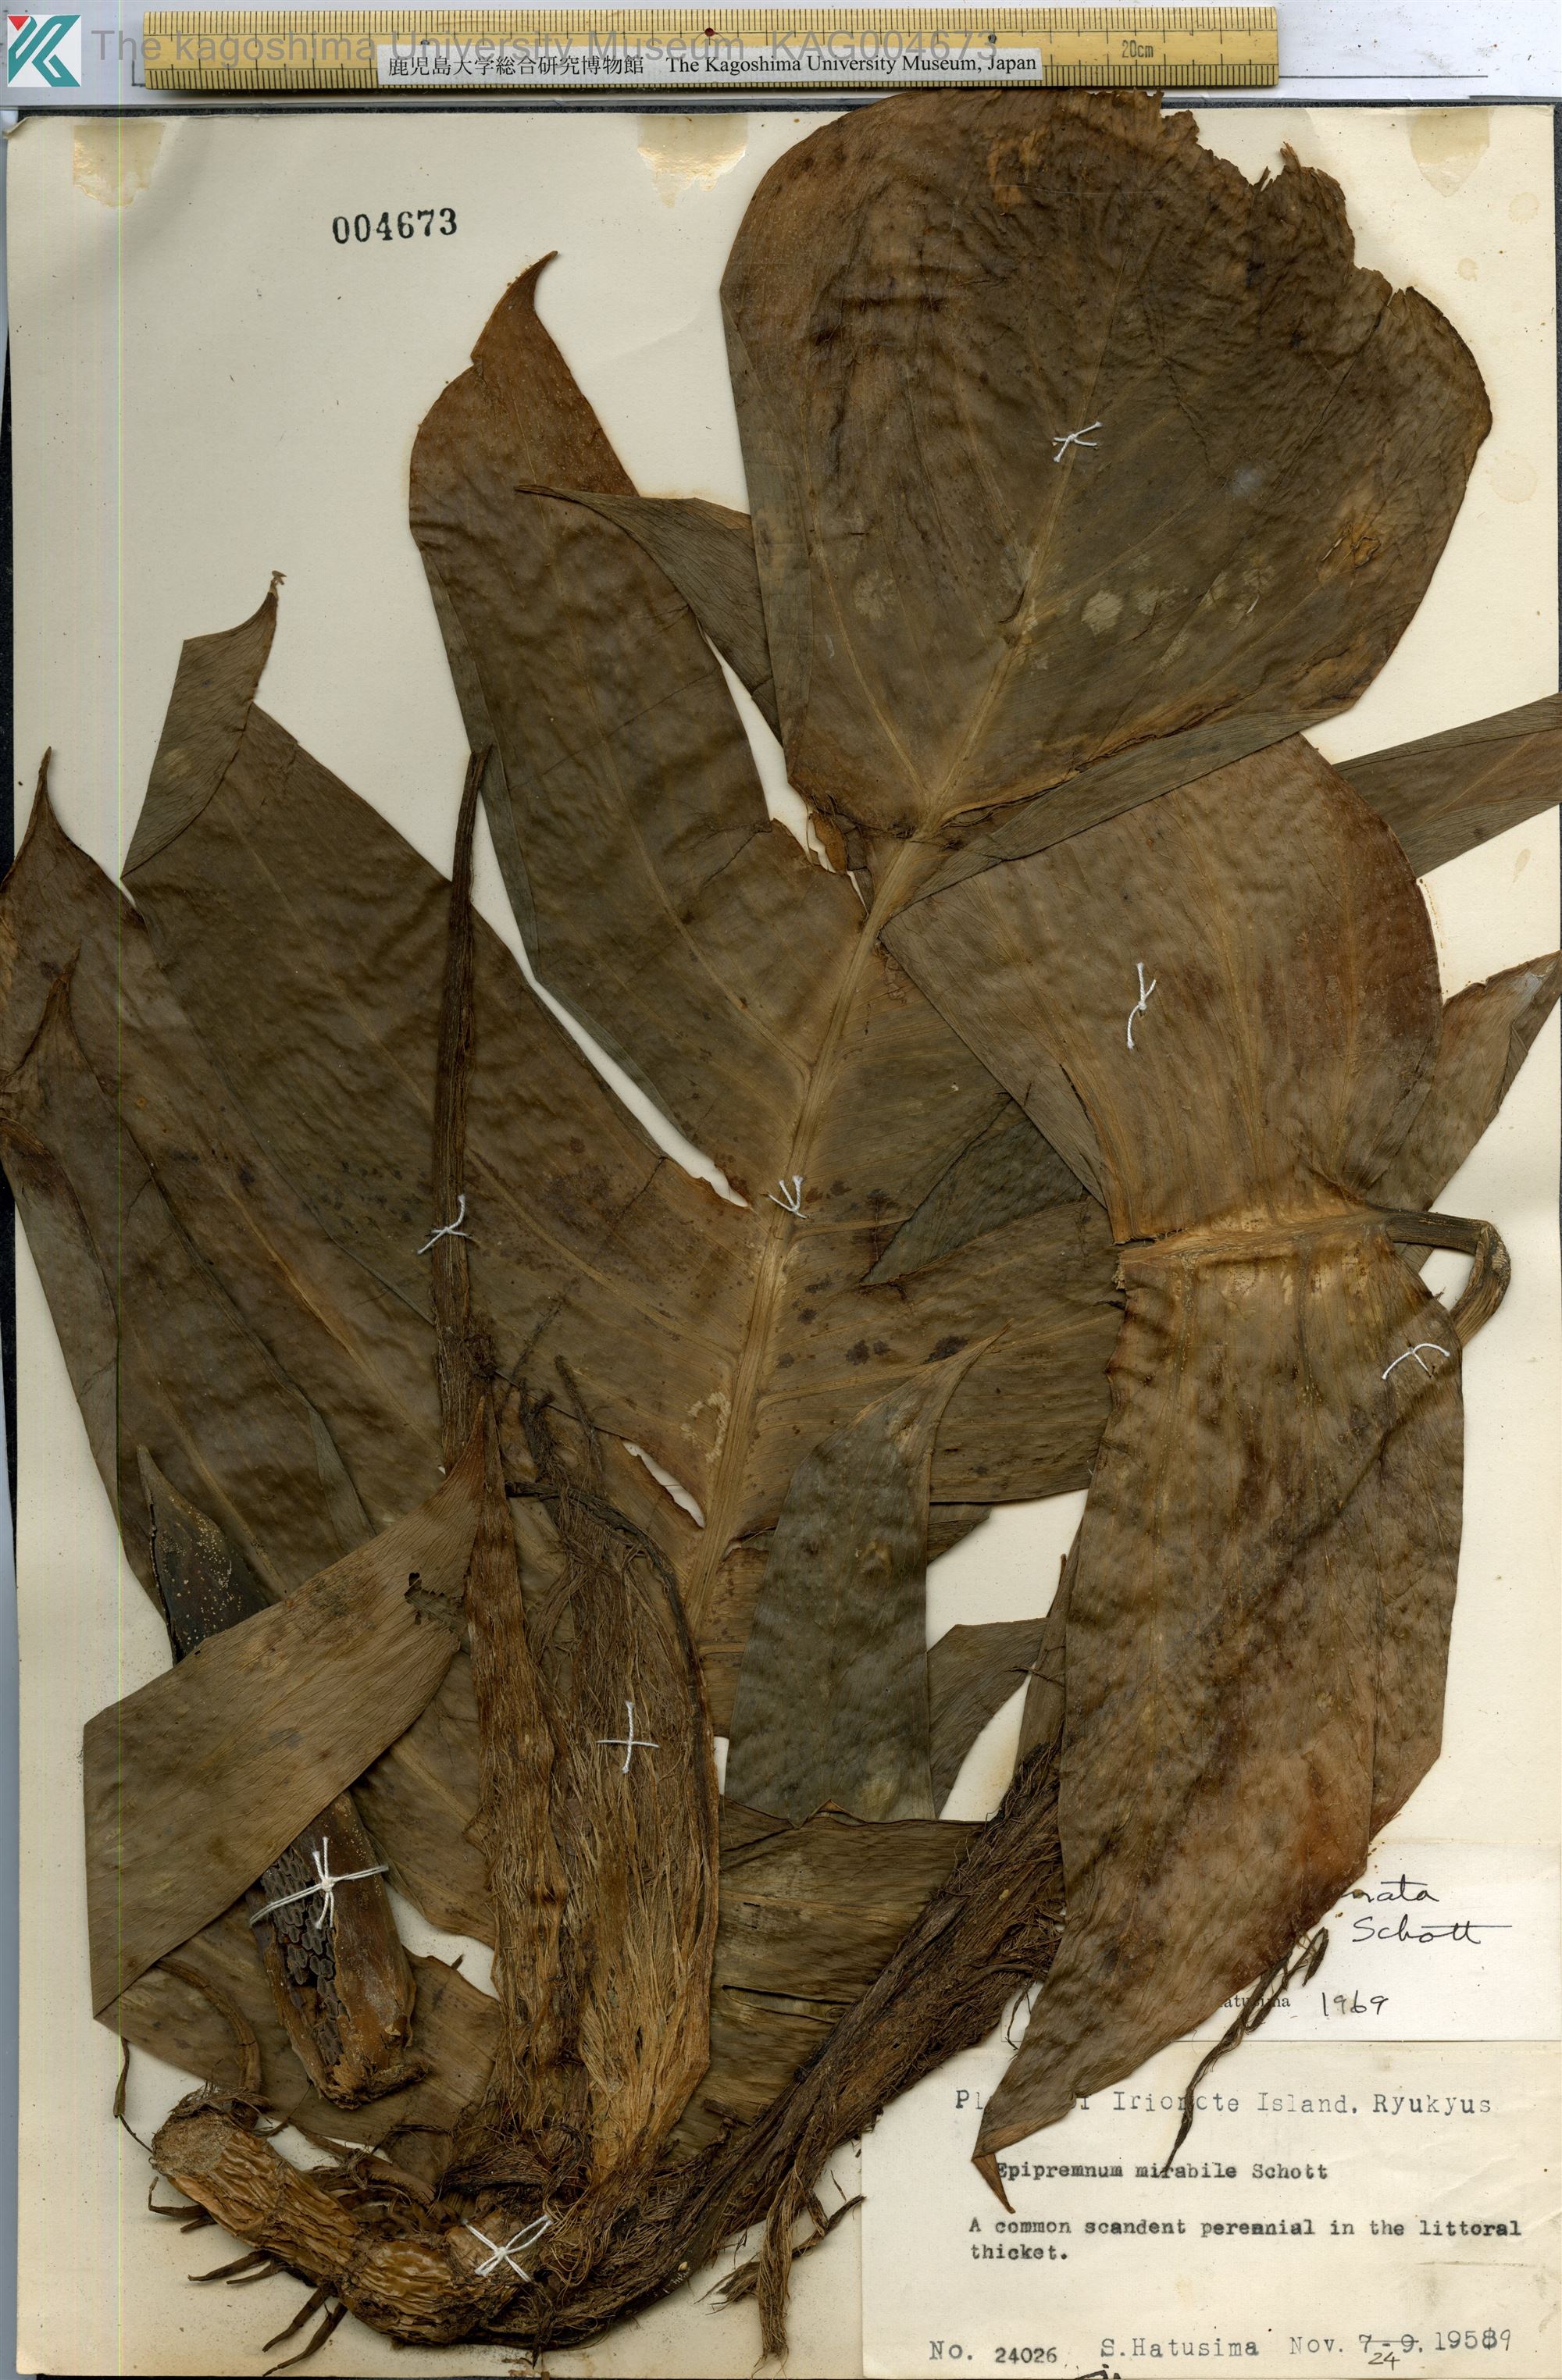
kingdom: Plantae
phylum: Tracheophyta
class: Liliopsida
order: Alismatales
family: Araceae
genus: Epipremnum
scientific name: Epipremnum pinnatum
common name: Centipede tongavine
